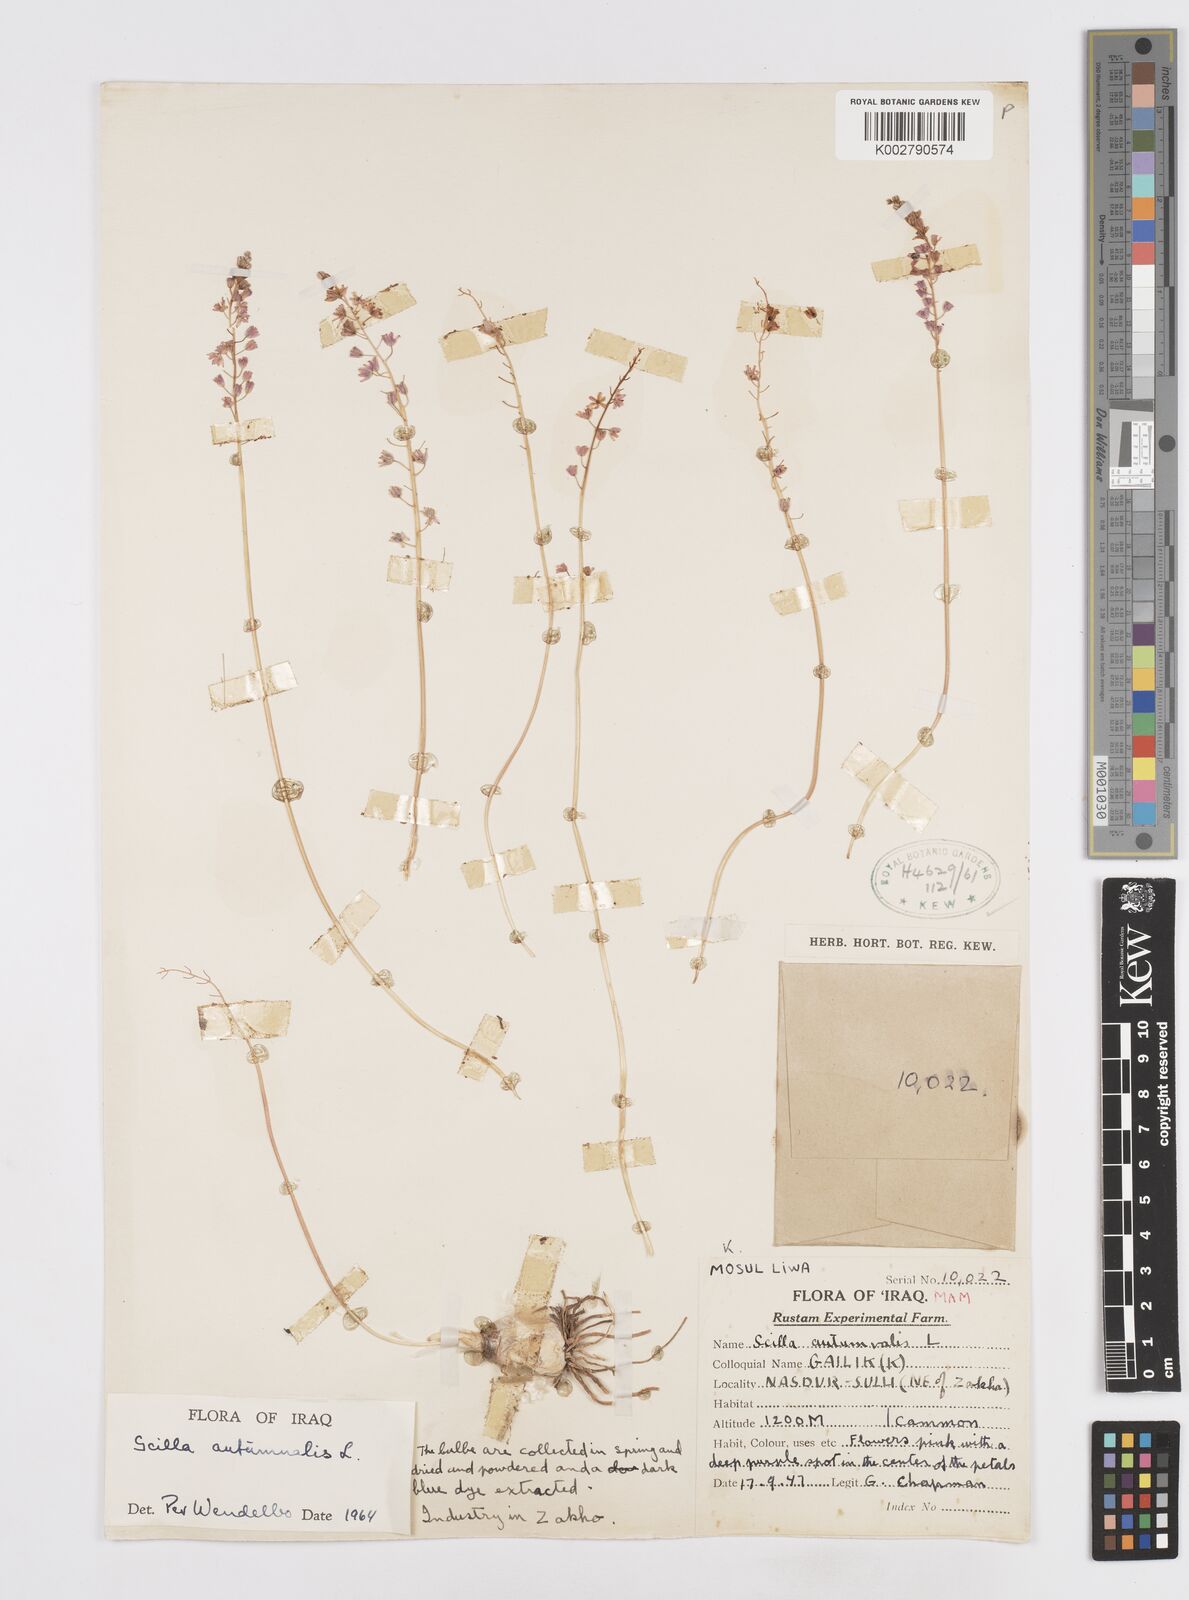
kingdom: Plantae
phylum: Tracheophyta
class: Liliopsida
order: Asparagales
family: Asparagaceae
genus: Prospero
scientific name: Prospero autumnale
